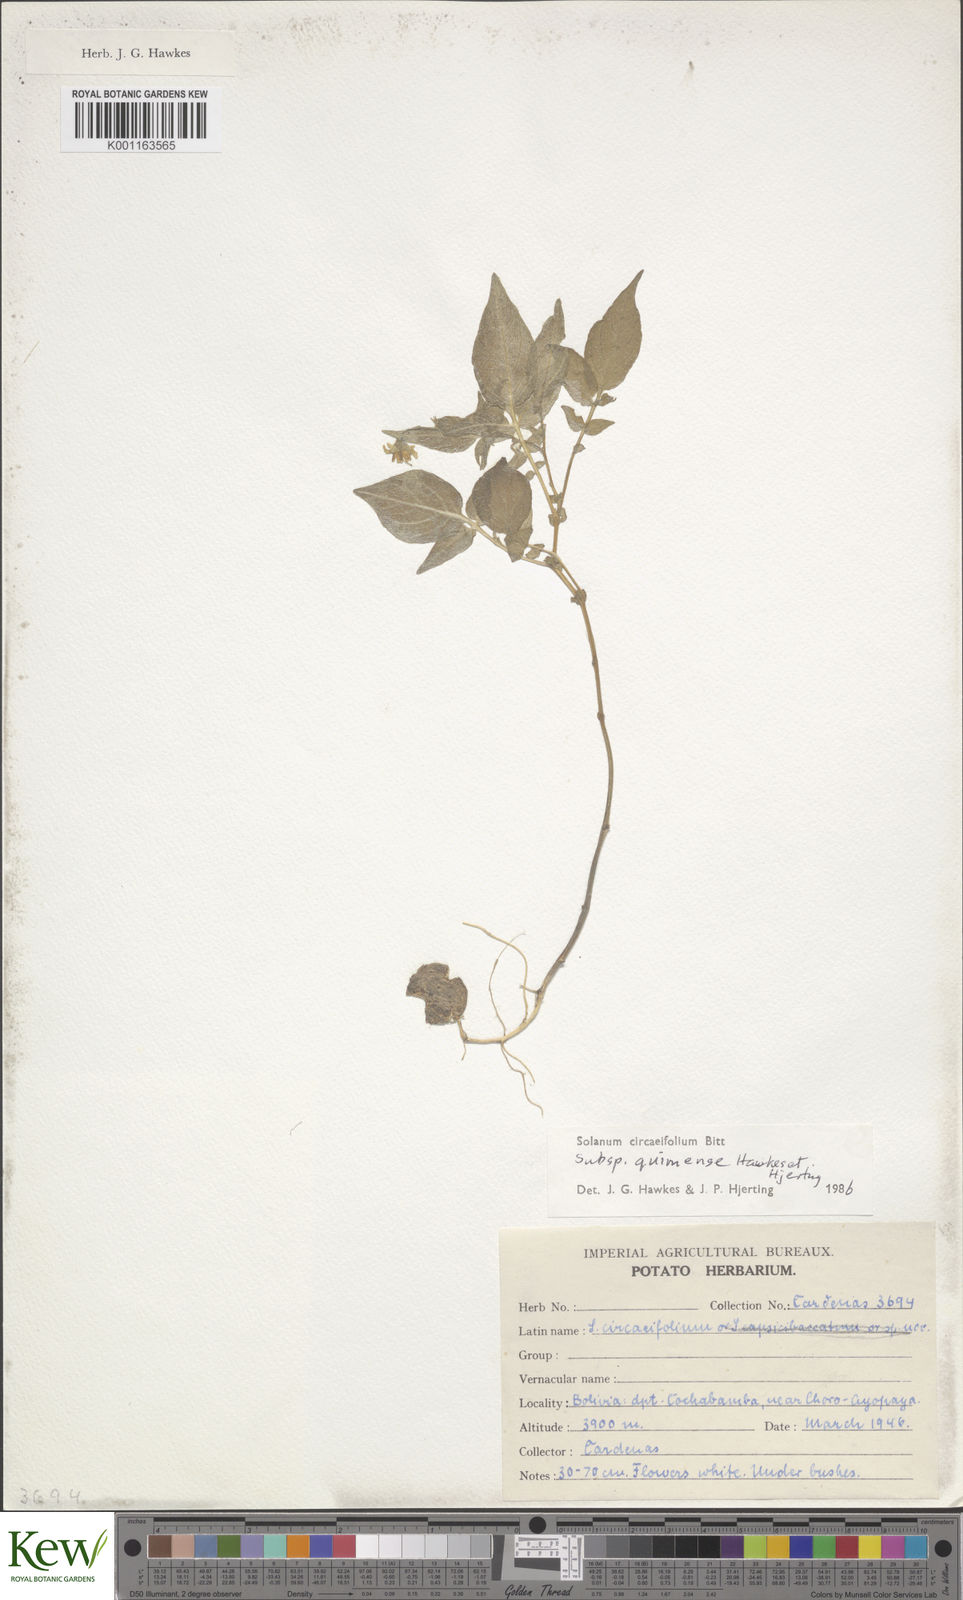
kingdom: Plantae
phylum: Tracheophyta
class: Magnoliopsida
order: Solanales
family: Solanaceae
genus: Solanum
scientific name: Solanum stipuloideum
